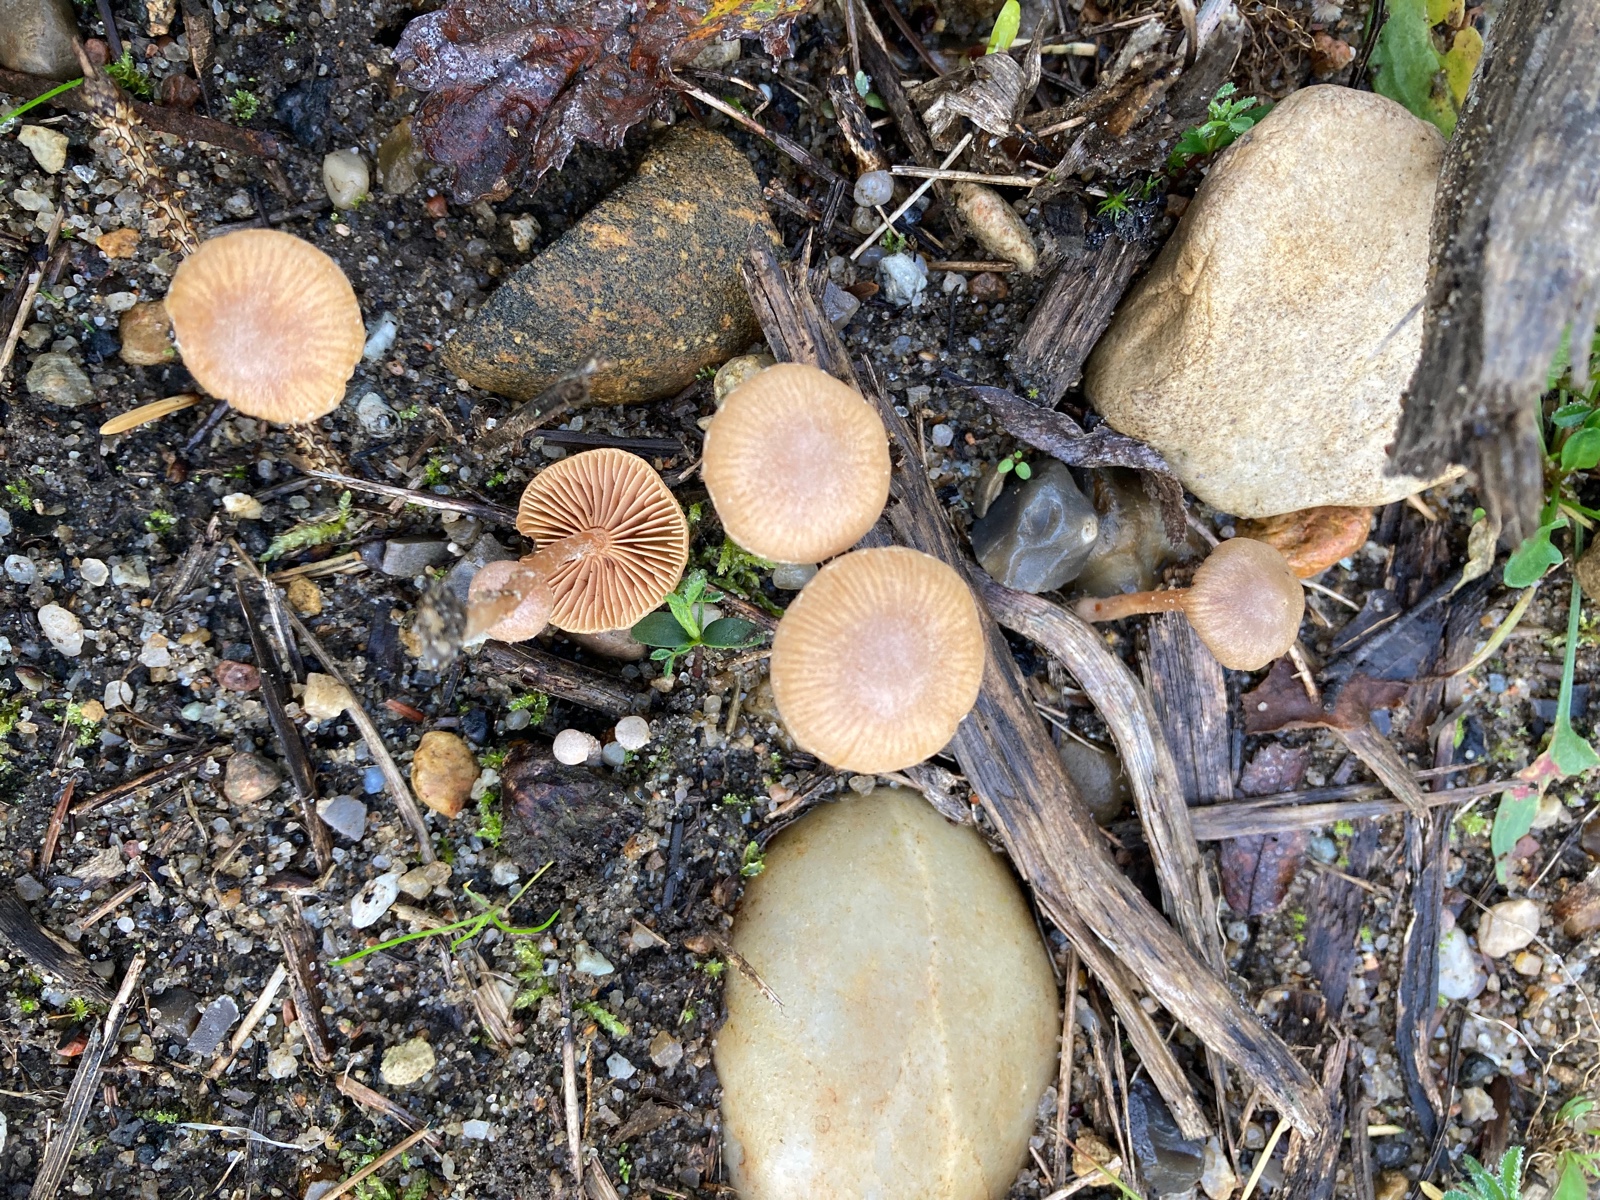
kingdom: Fungi
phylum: Basidiomycota
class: Agaricomycetes
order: Agaricales
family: Tubariaceae
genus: Tubaria
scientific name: Tubaria furfuracea
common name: kliddet fnughat
